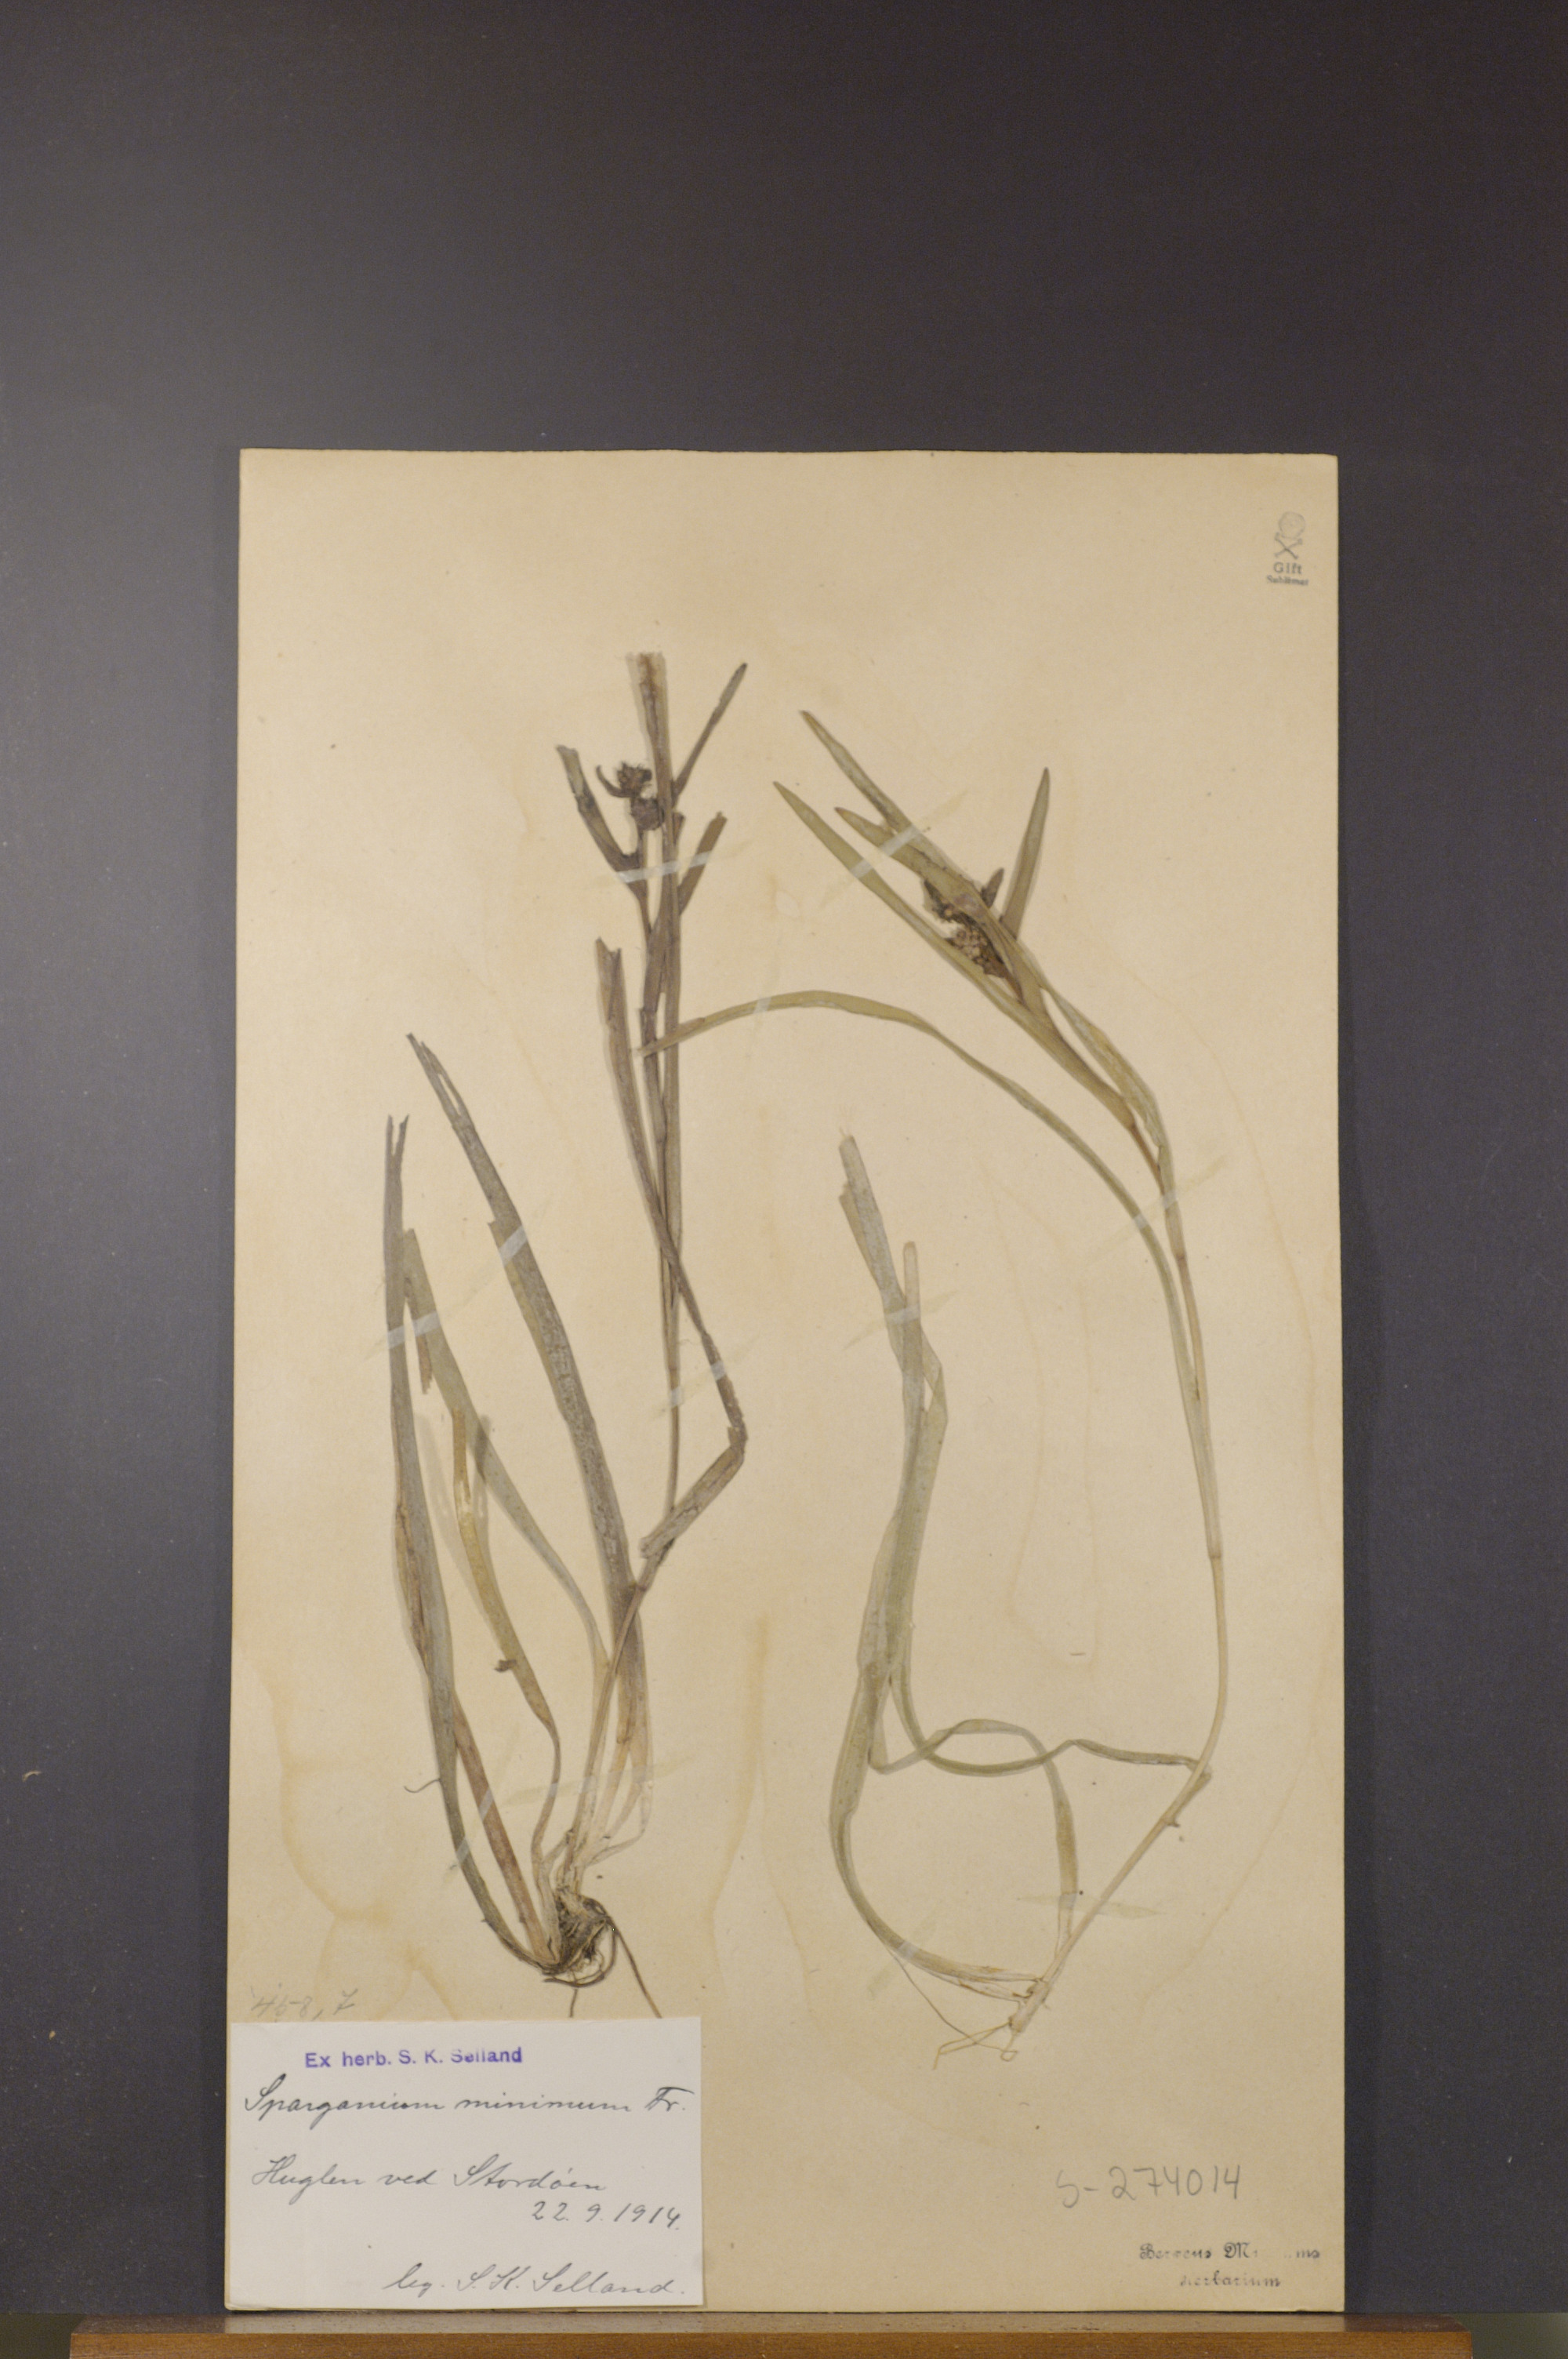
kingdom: Plantae
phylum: Tracheophyta
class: Liliopsida
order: Poales
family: Typhaceae
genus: Sparganium
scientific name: Sparganium natans
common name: Least bur-reed
